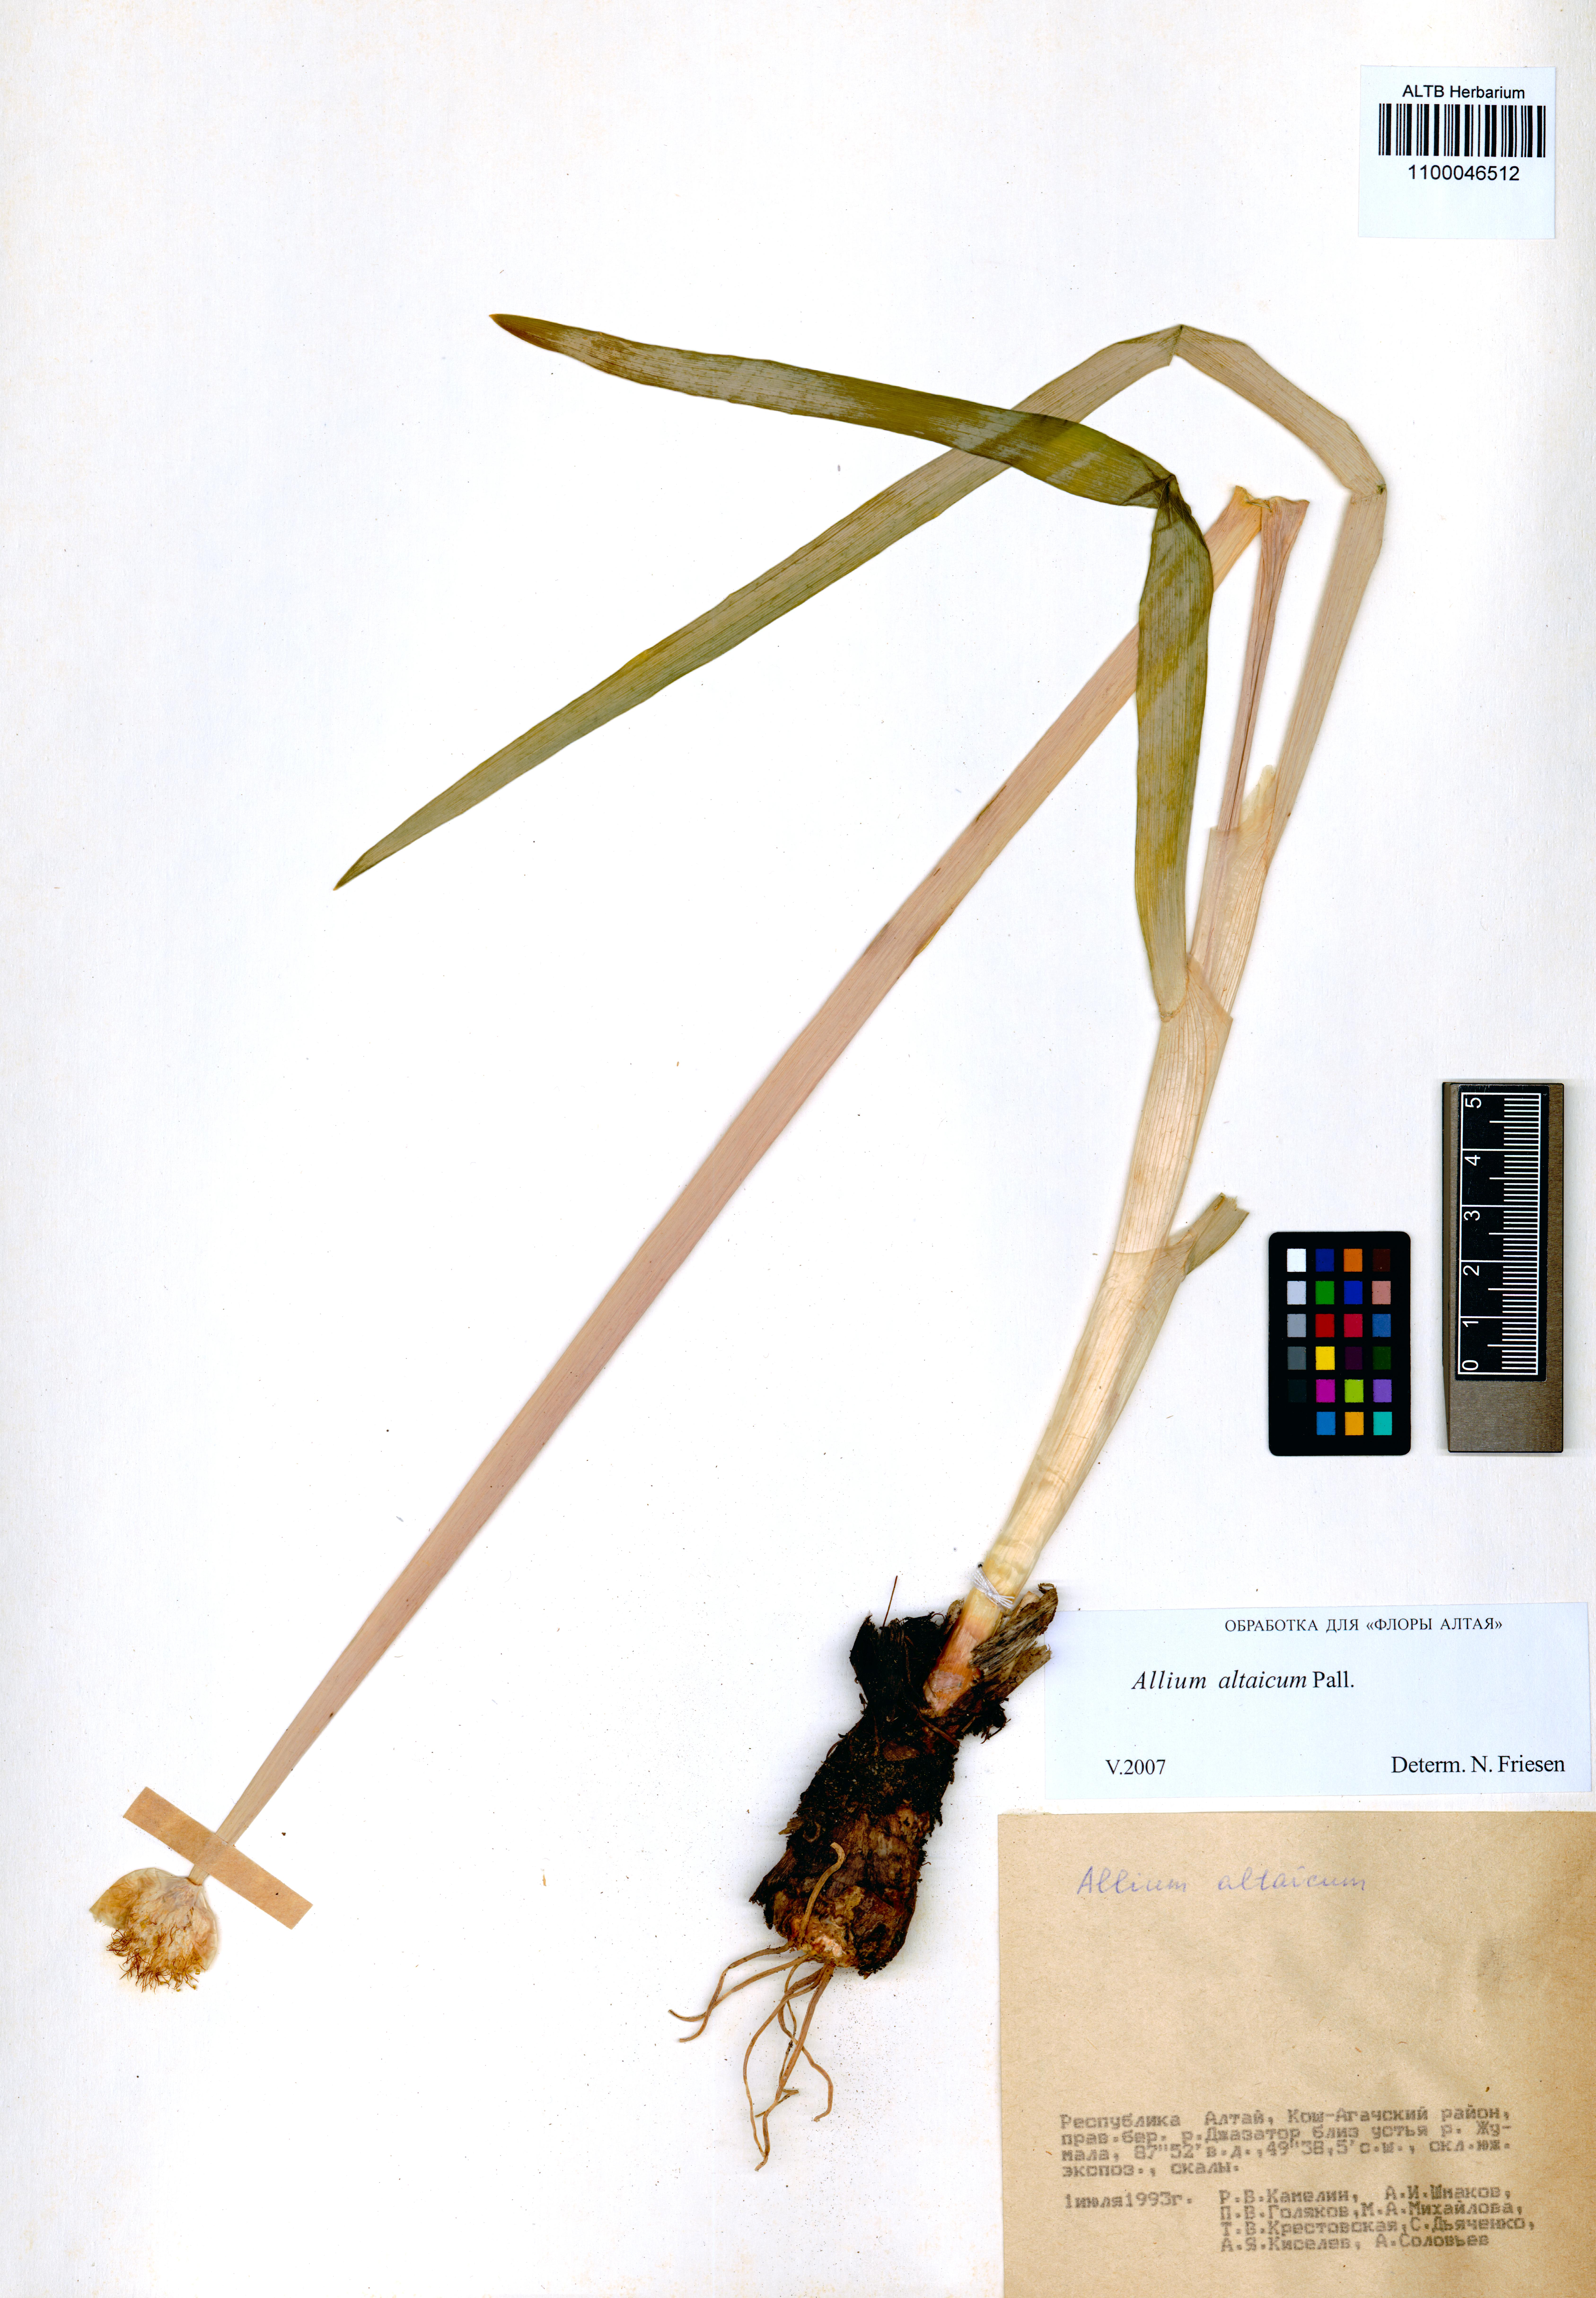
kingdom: Plantae
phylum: Tracheophyta
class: Liliopsida
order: Asparagales
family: Amaryllidaceae
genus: Allium
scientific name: Allium altaicum
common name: Altai onion
